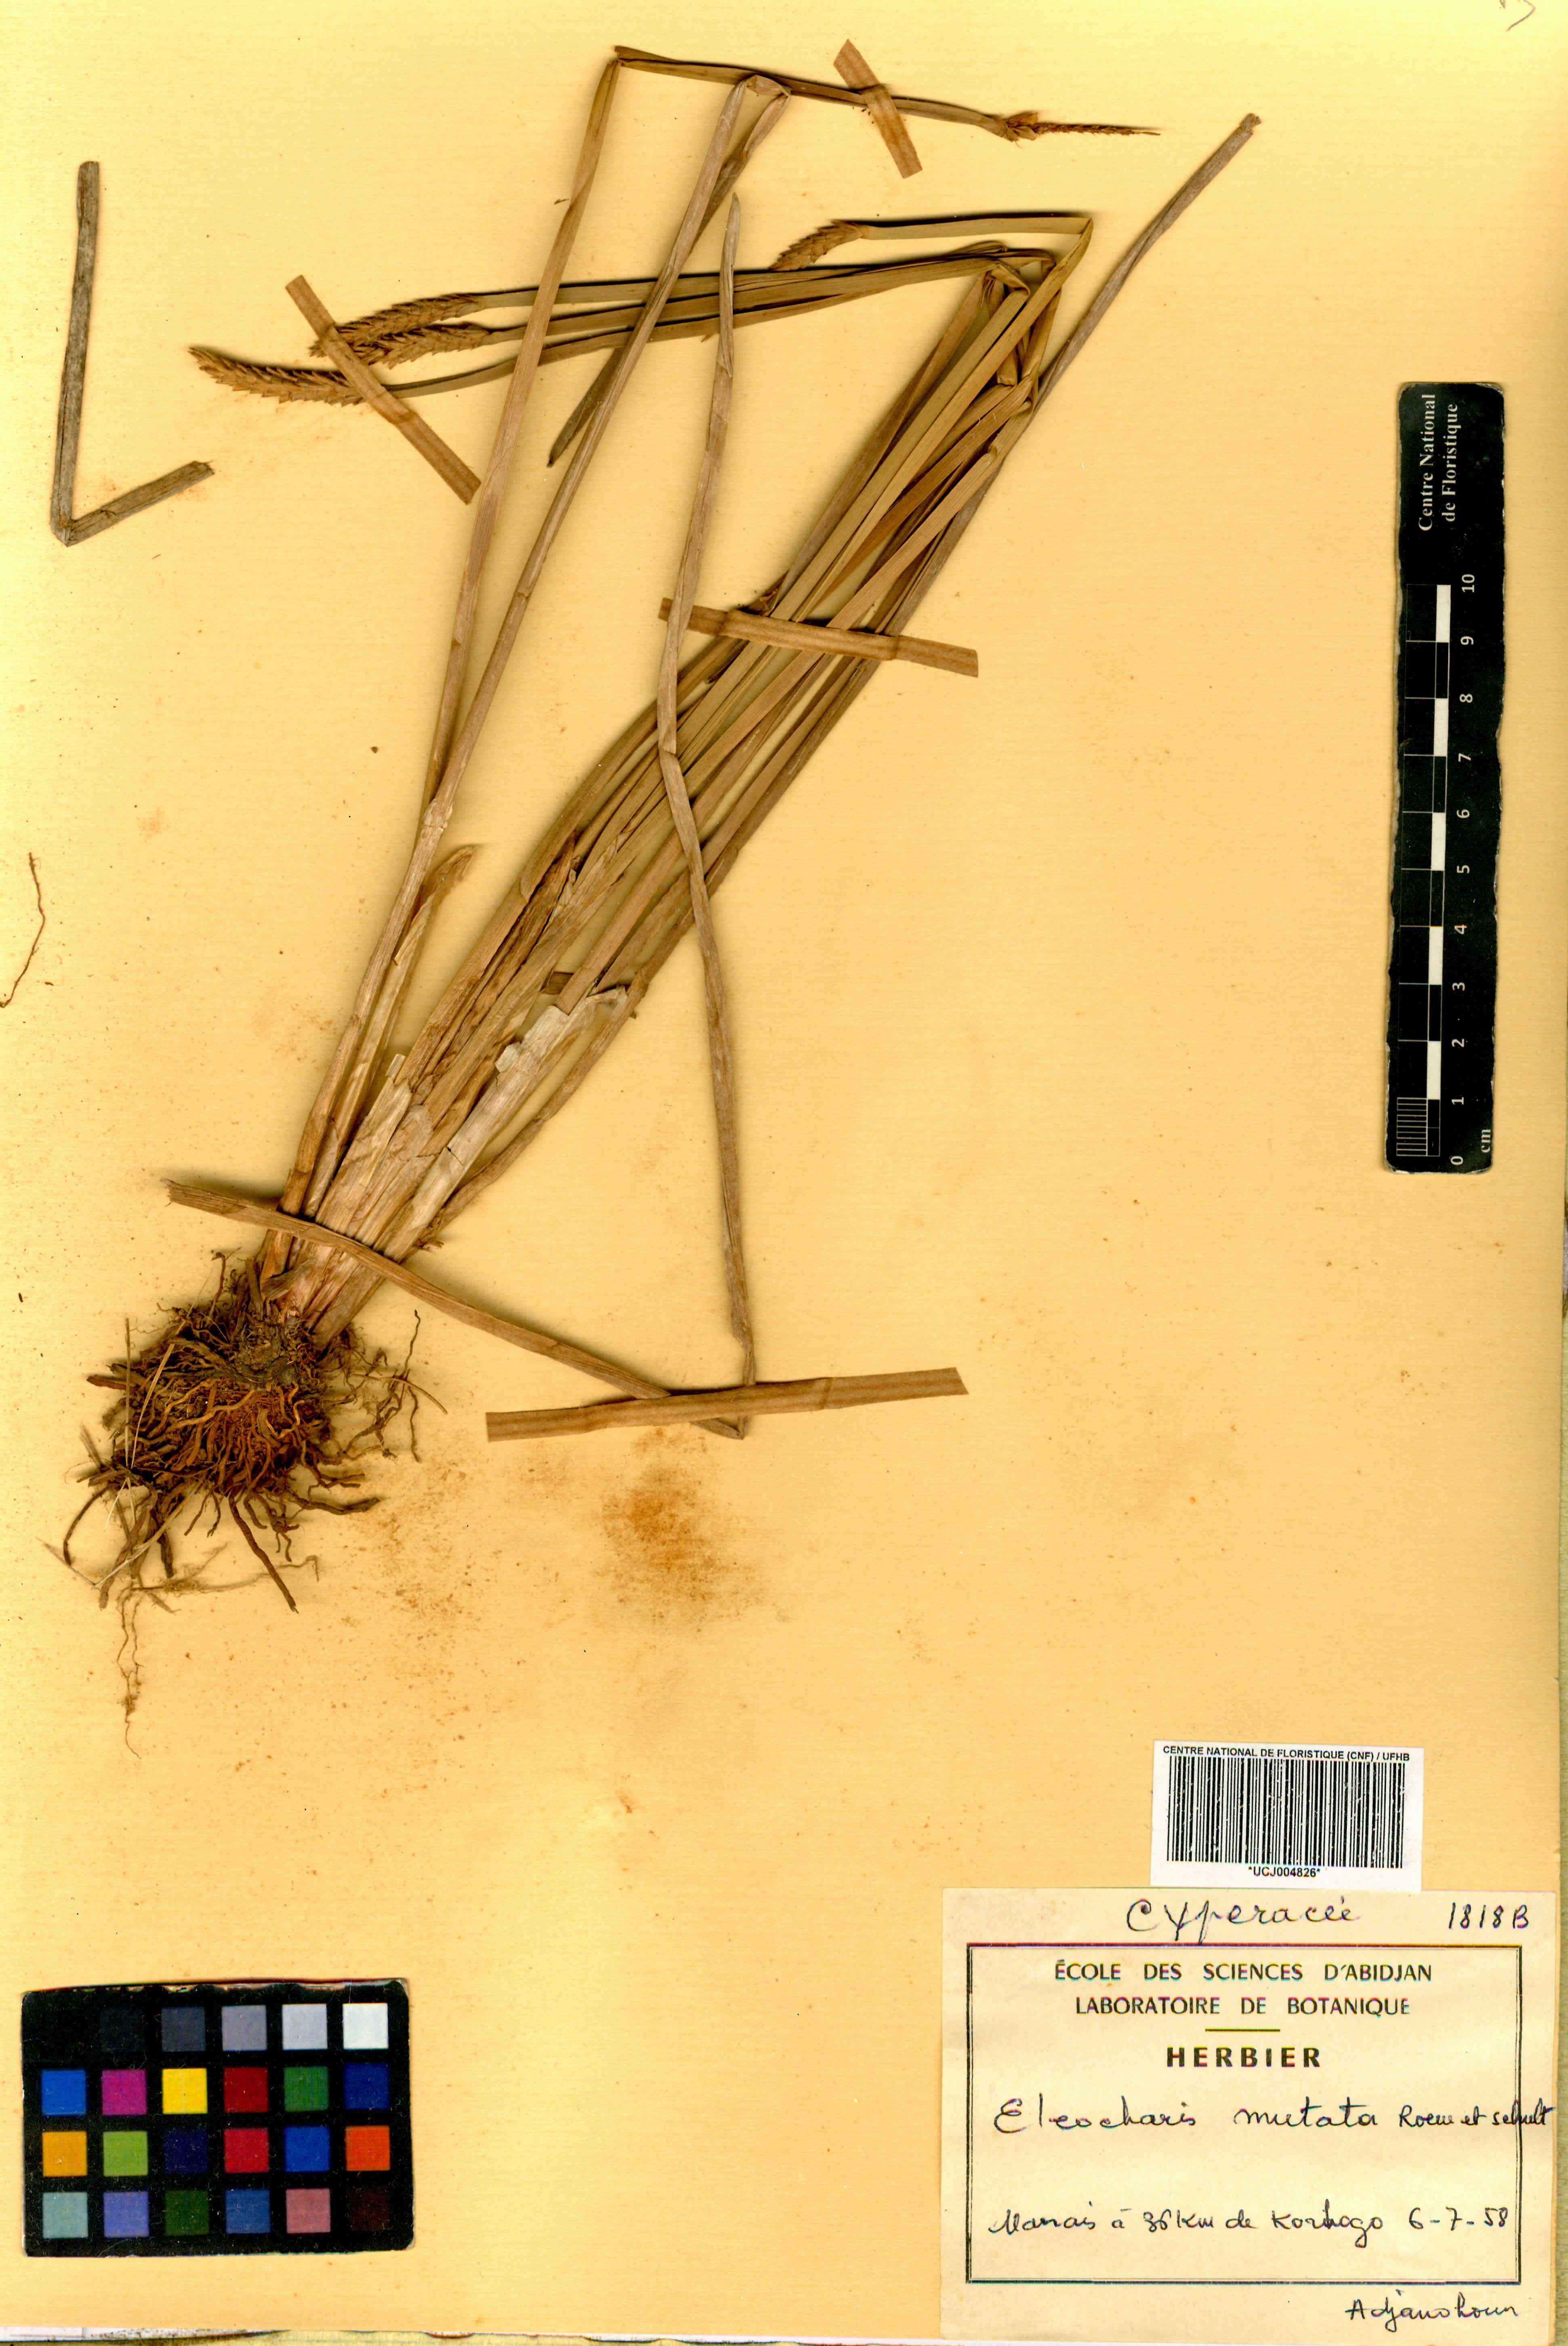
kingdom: Plantae
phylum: Tracheophyta
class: Liliopsida
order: Poales
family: Cyperaceae
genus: Eleocharis
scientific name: Eleocharis mutata
